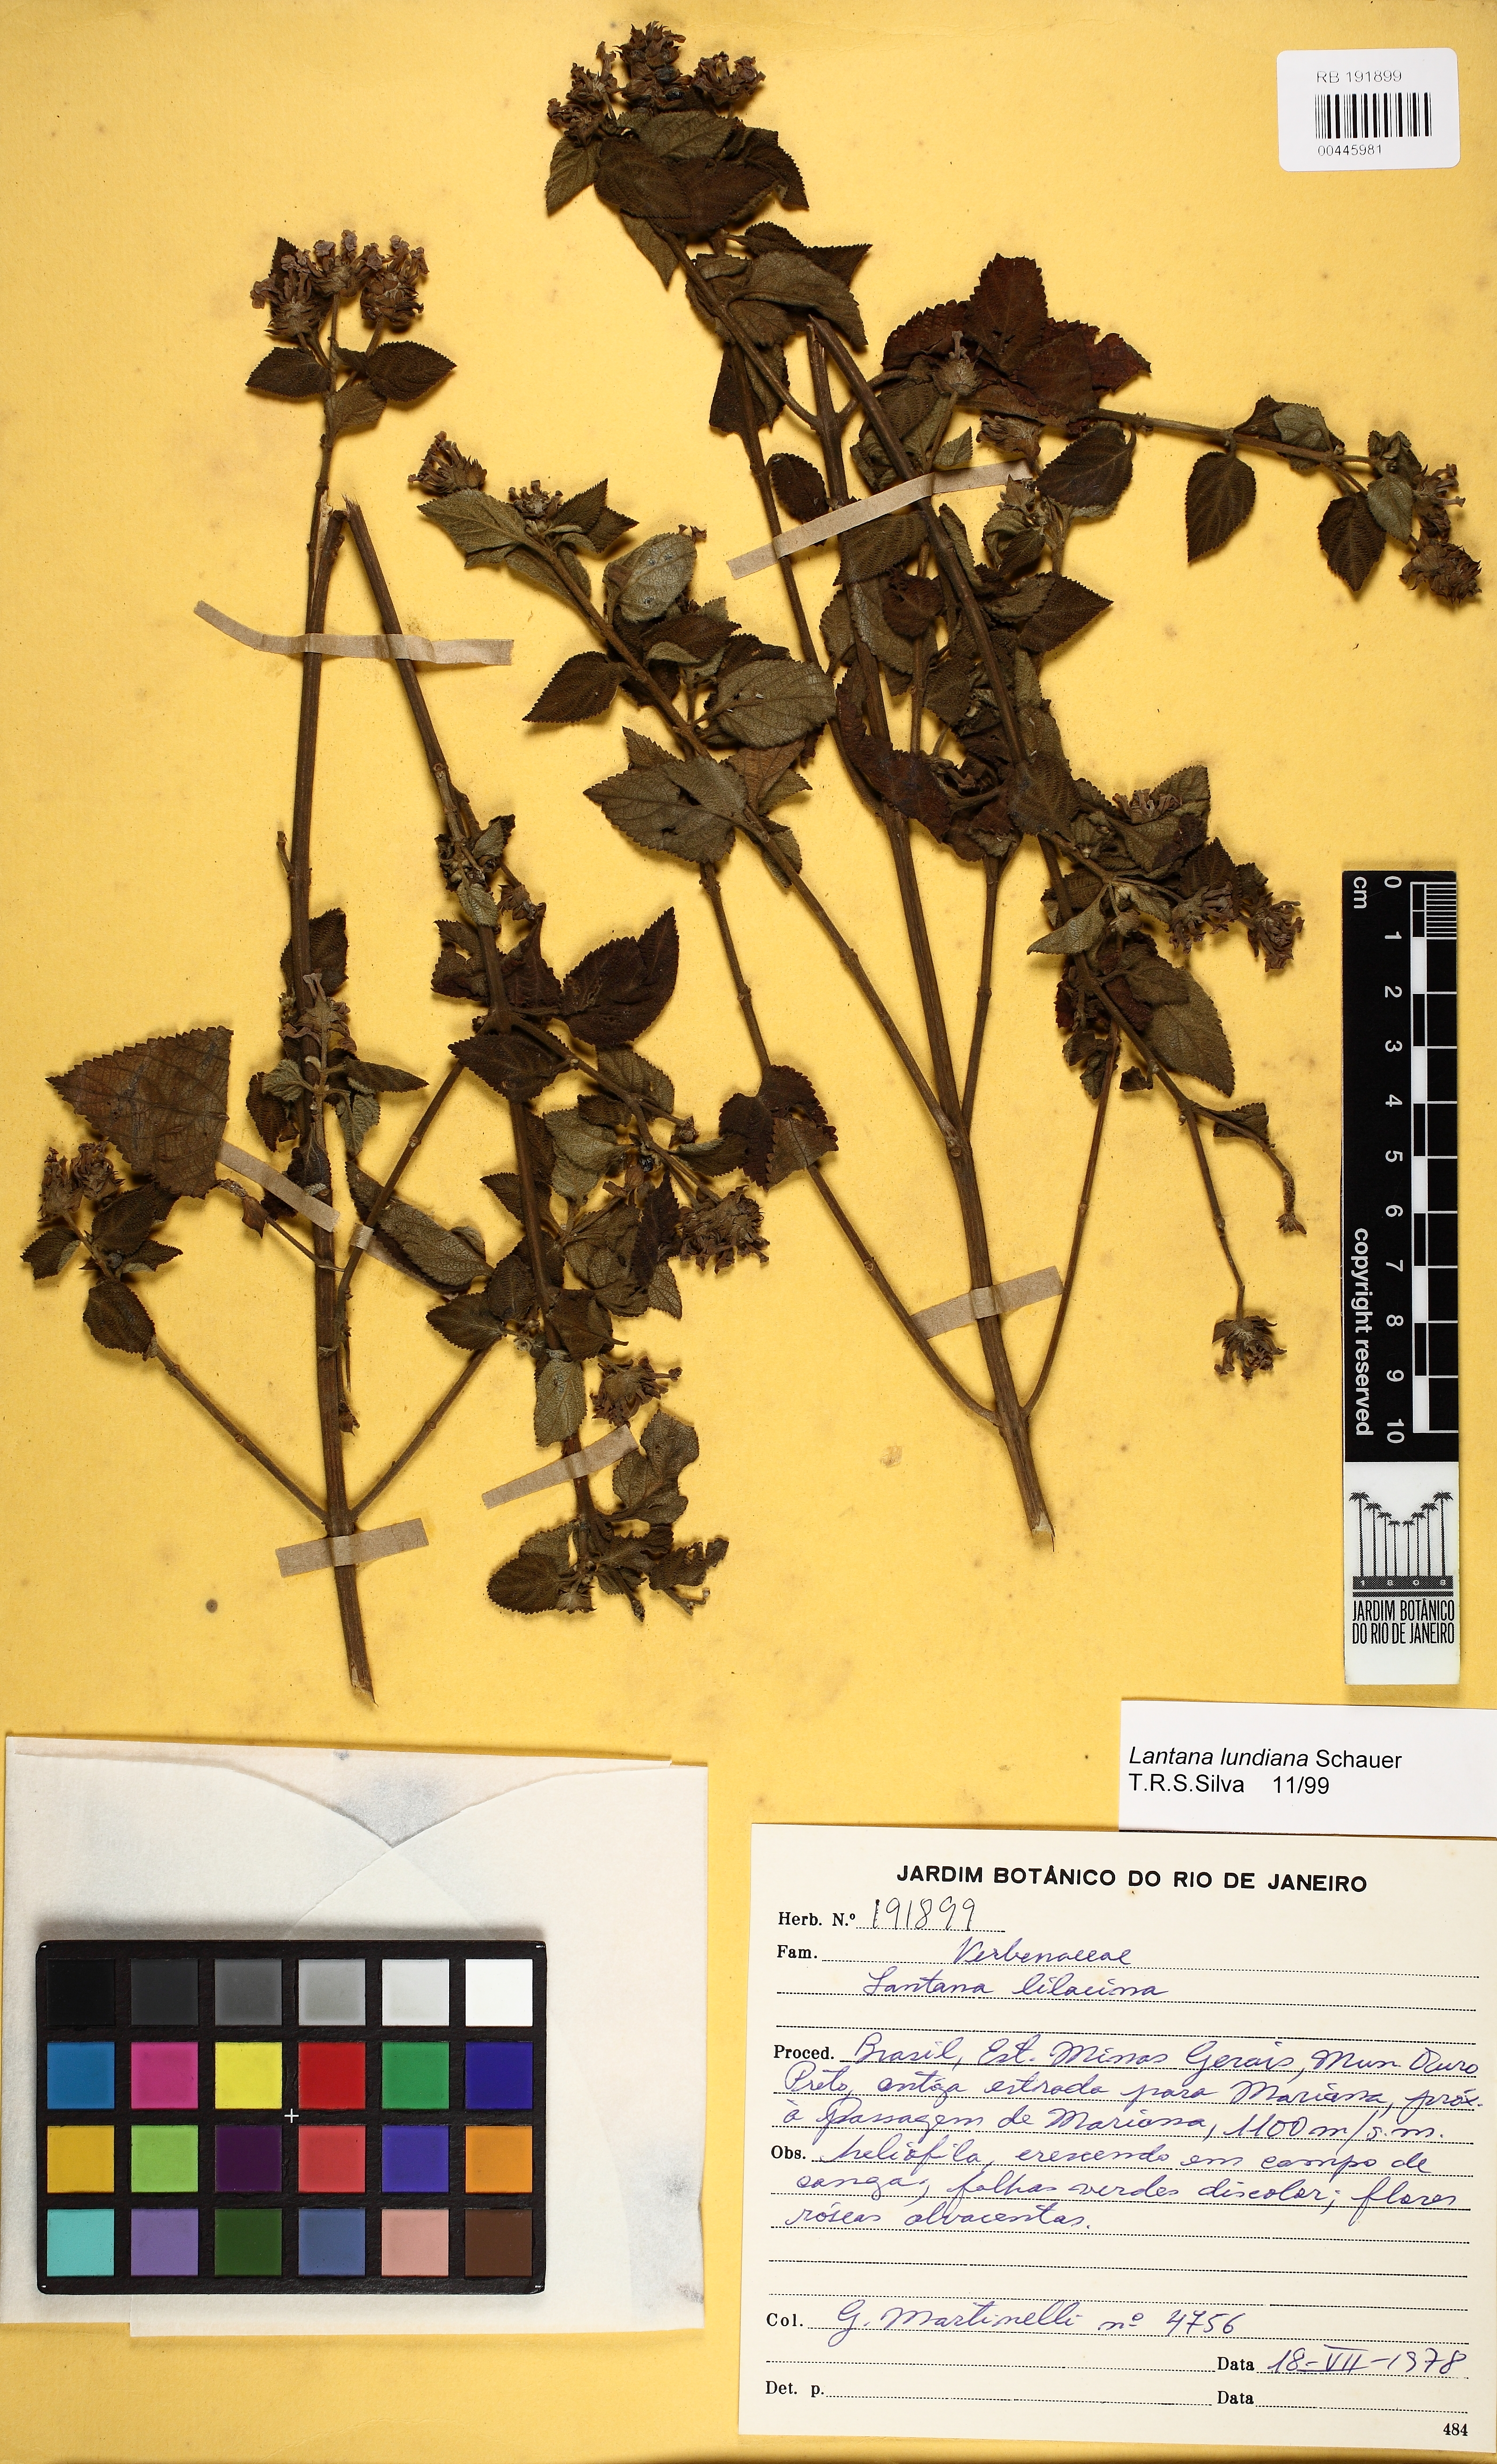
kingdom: Plantae
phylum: Tracheophyta
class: Magnoliopsida
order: Lamiales
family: Verbenaceae
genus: Lantana
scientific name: Lantana lundiana
